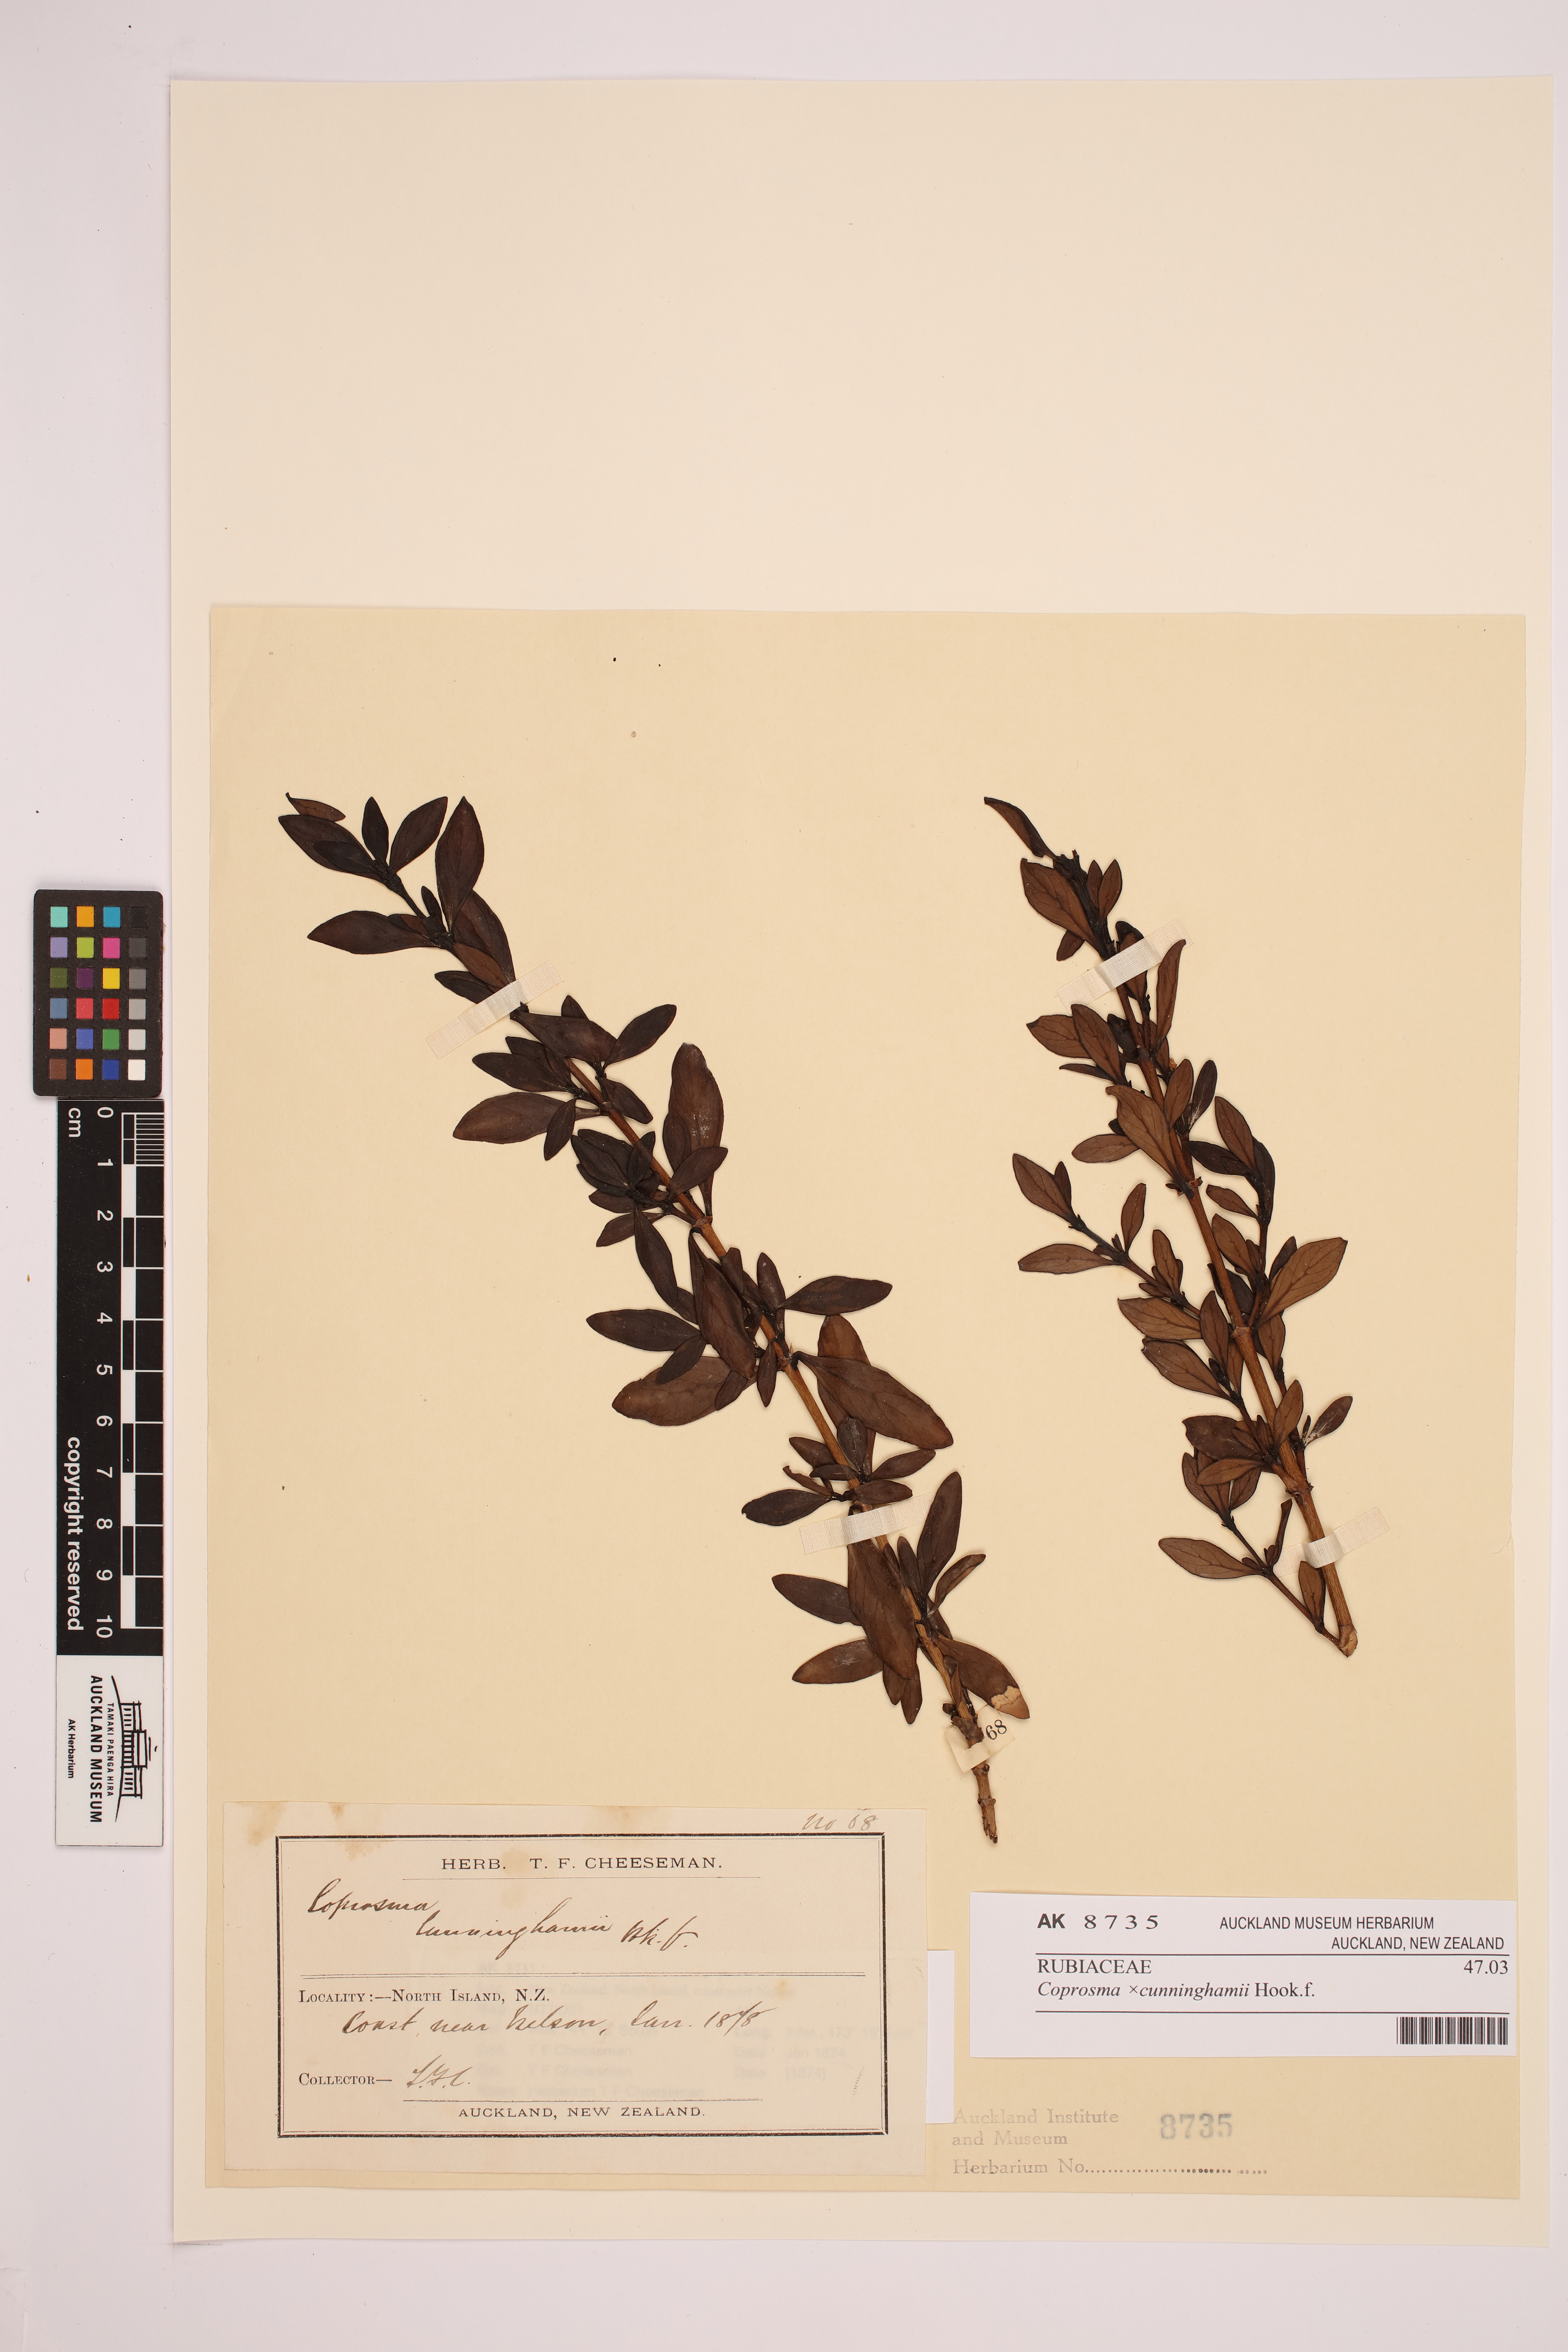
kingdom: Plantae
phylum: Tracheophyta
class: Magnoliopsida
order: Lamiales
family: Plantaginaceae
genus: Veronica
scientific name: Veronica lyallii
